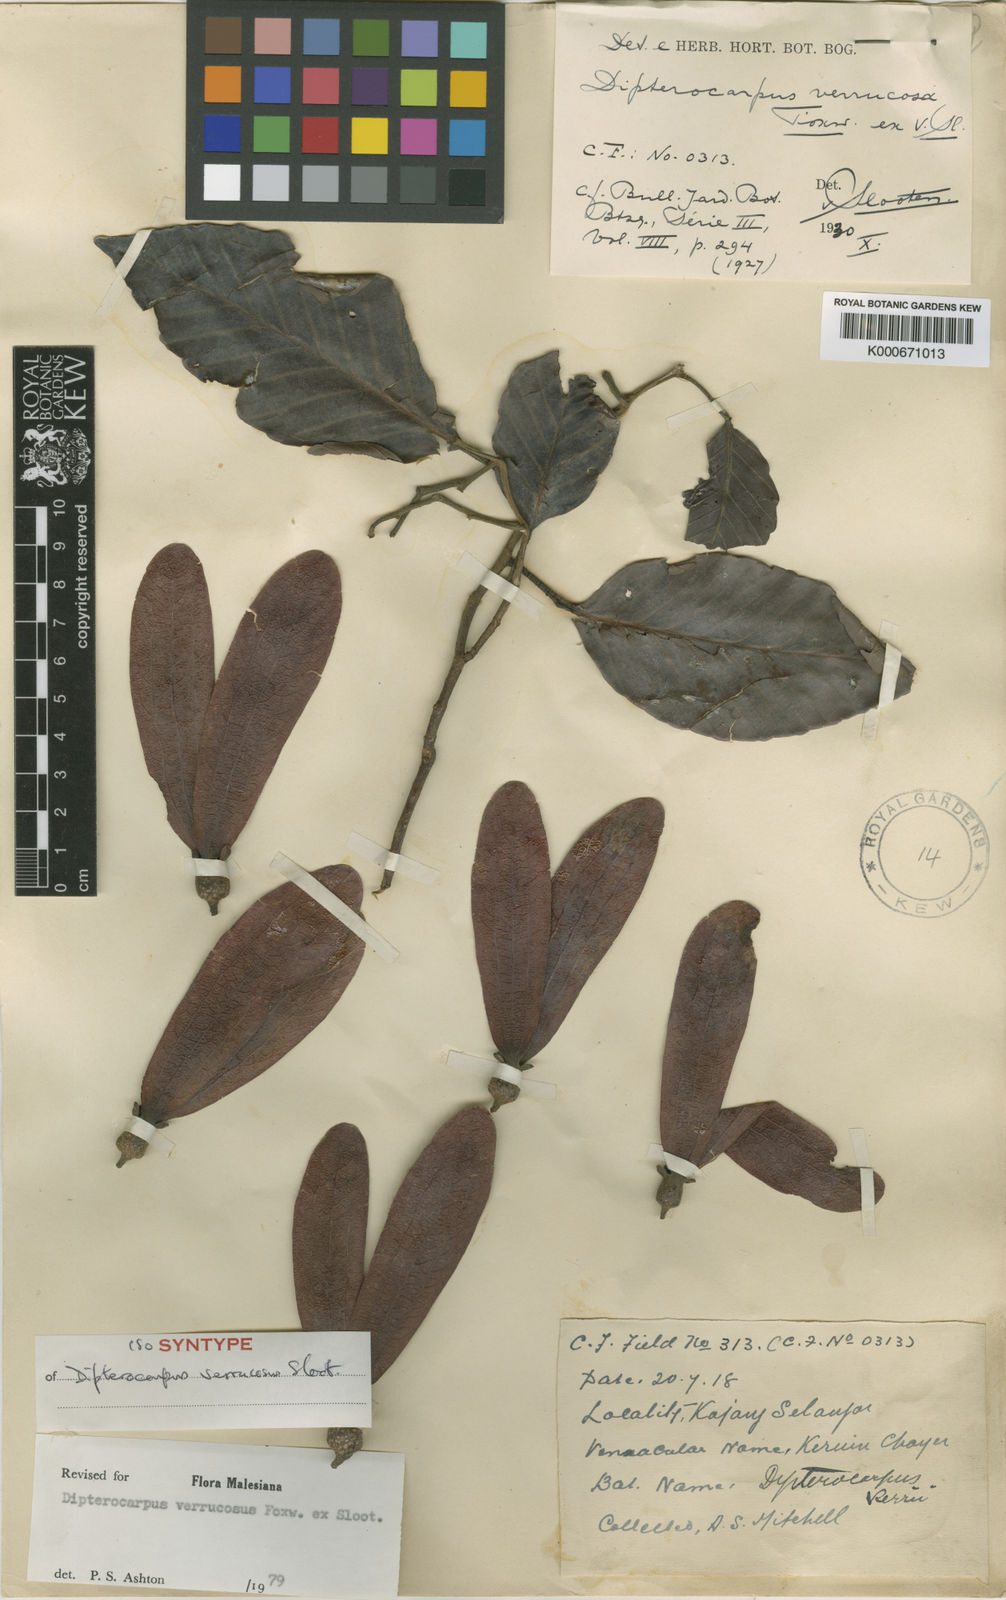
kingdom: Plantae
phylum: Tracheophyta
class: Magnoliopsida
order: Malvales
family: Dipterocarpaceae
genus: Dipterocarpus
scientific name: Dipterocarpus verrucosus
